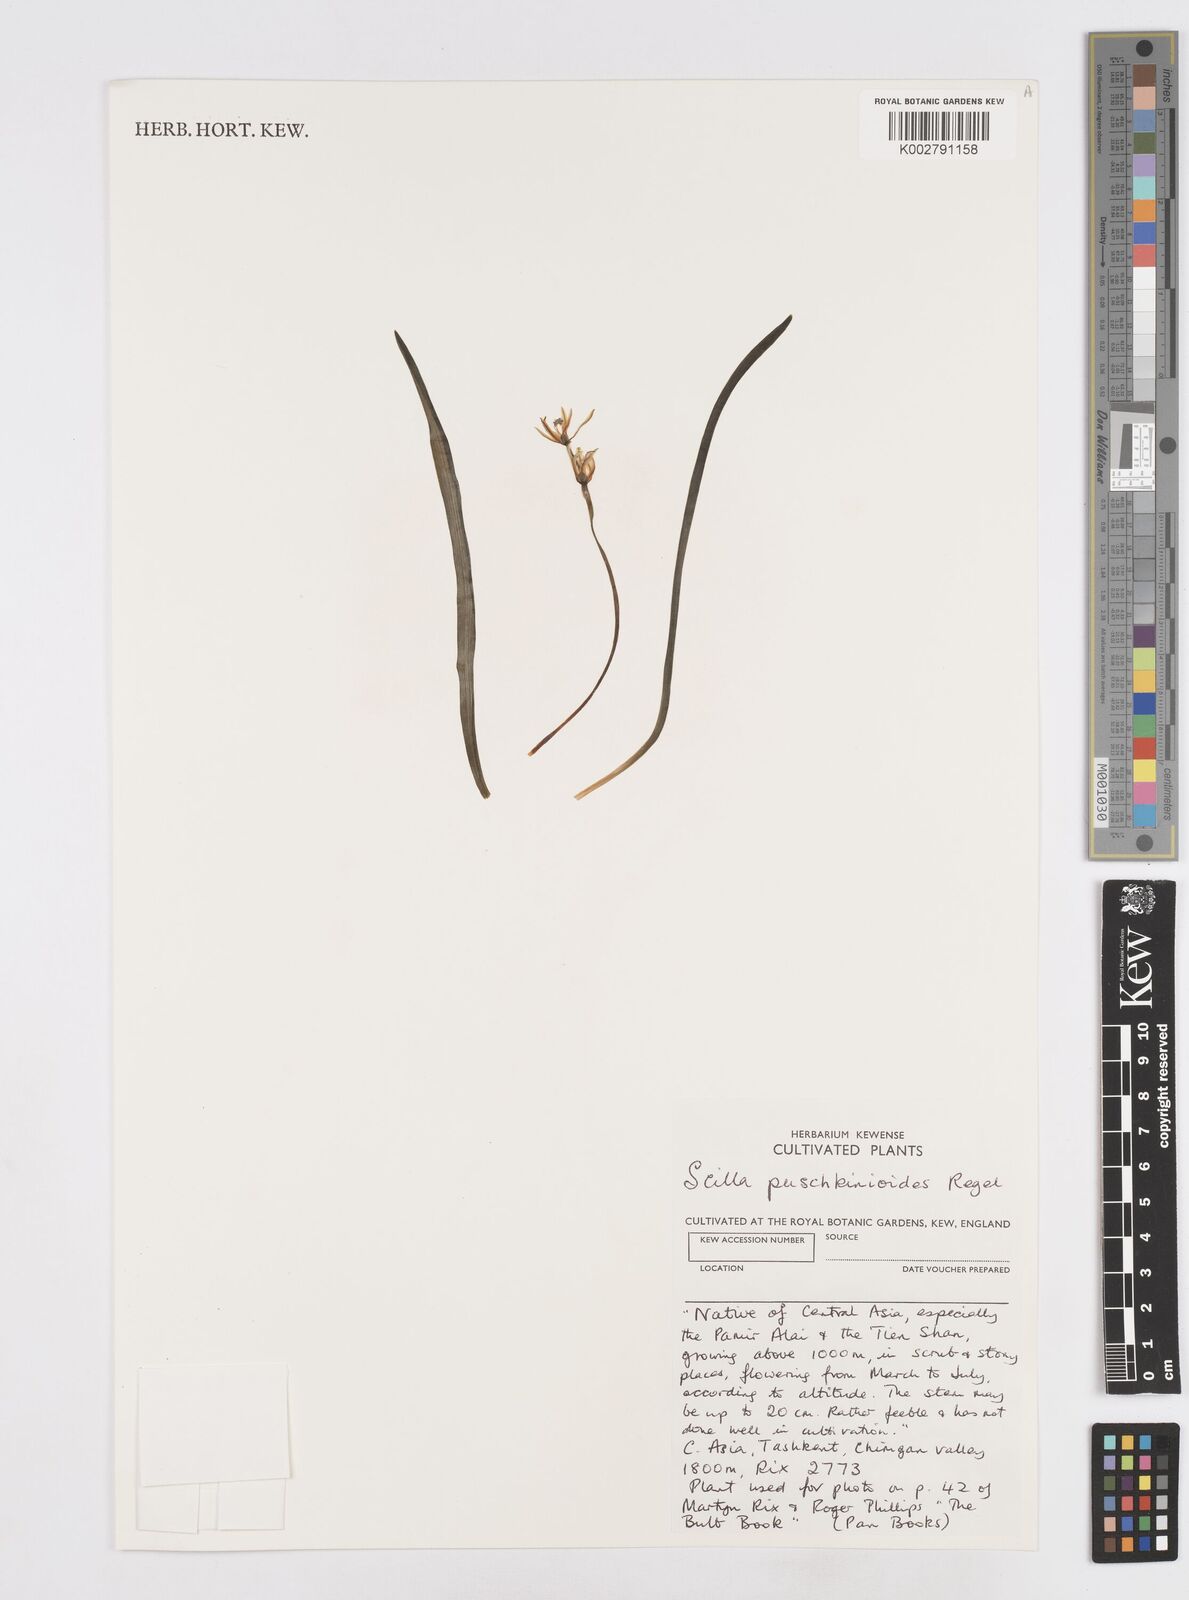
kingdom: Plantae
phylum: Tracheophyta
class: Liliopsida
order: Asparagales
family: Asparagaceae
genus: Fessia
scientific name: Fessia puschkinioides
